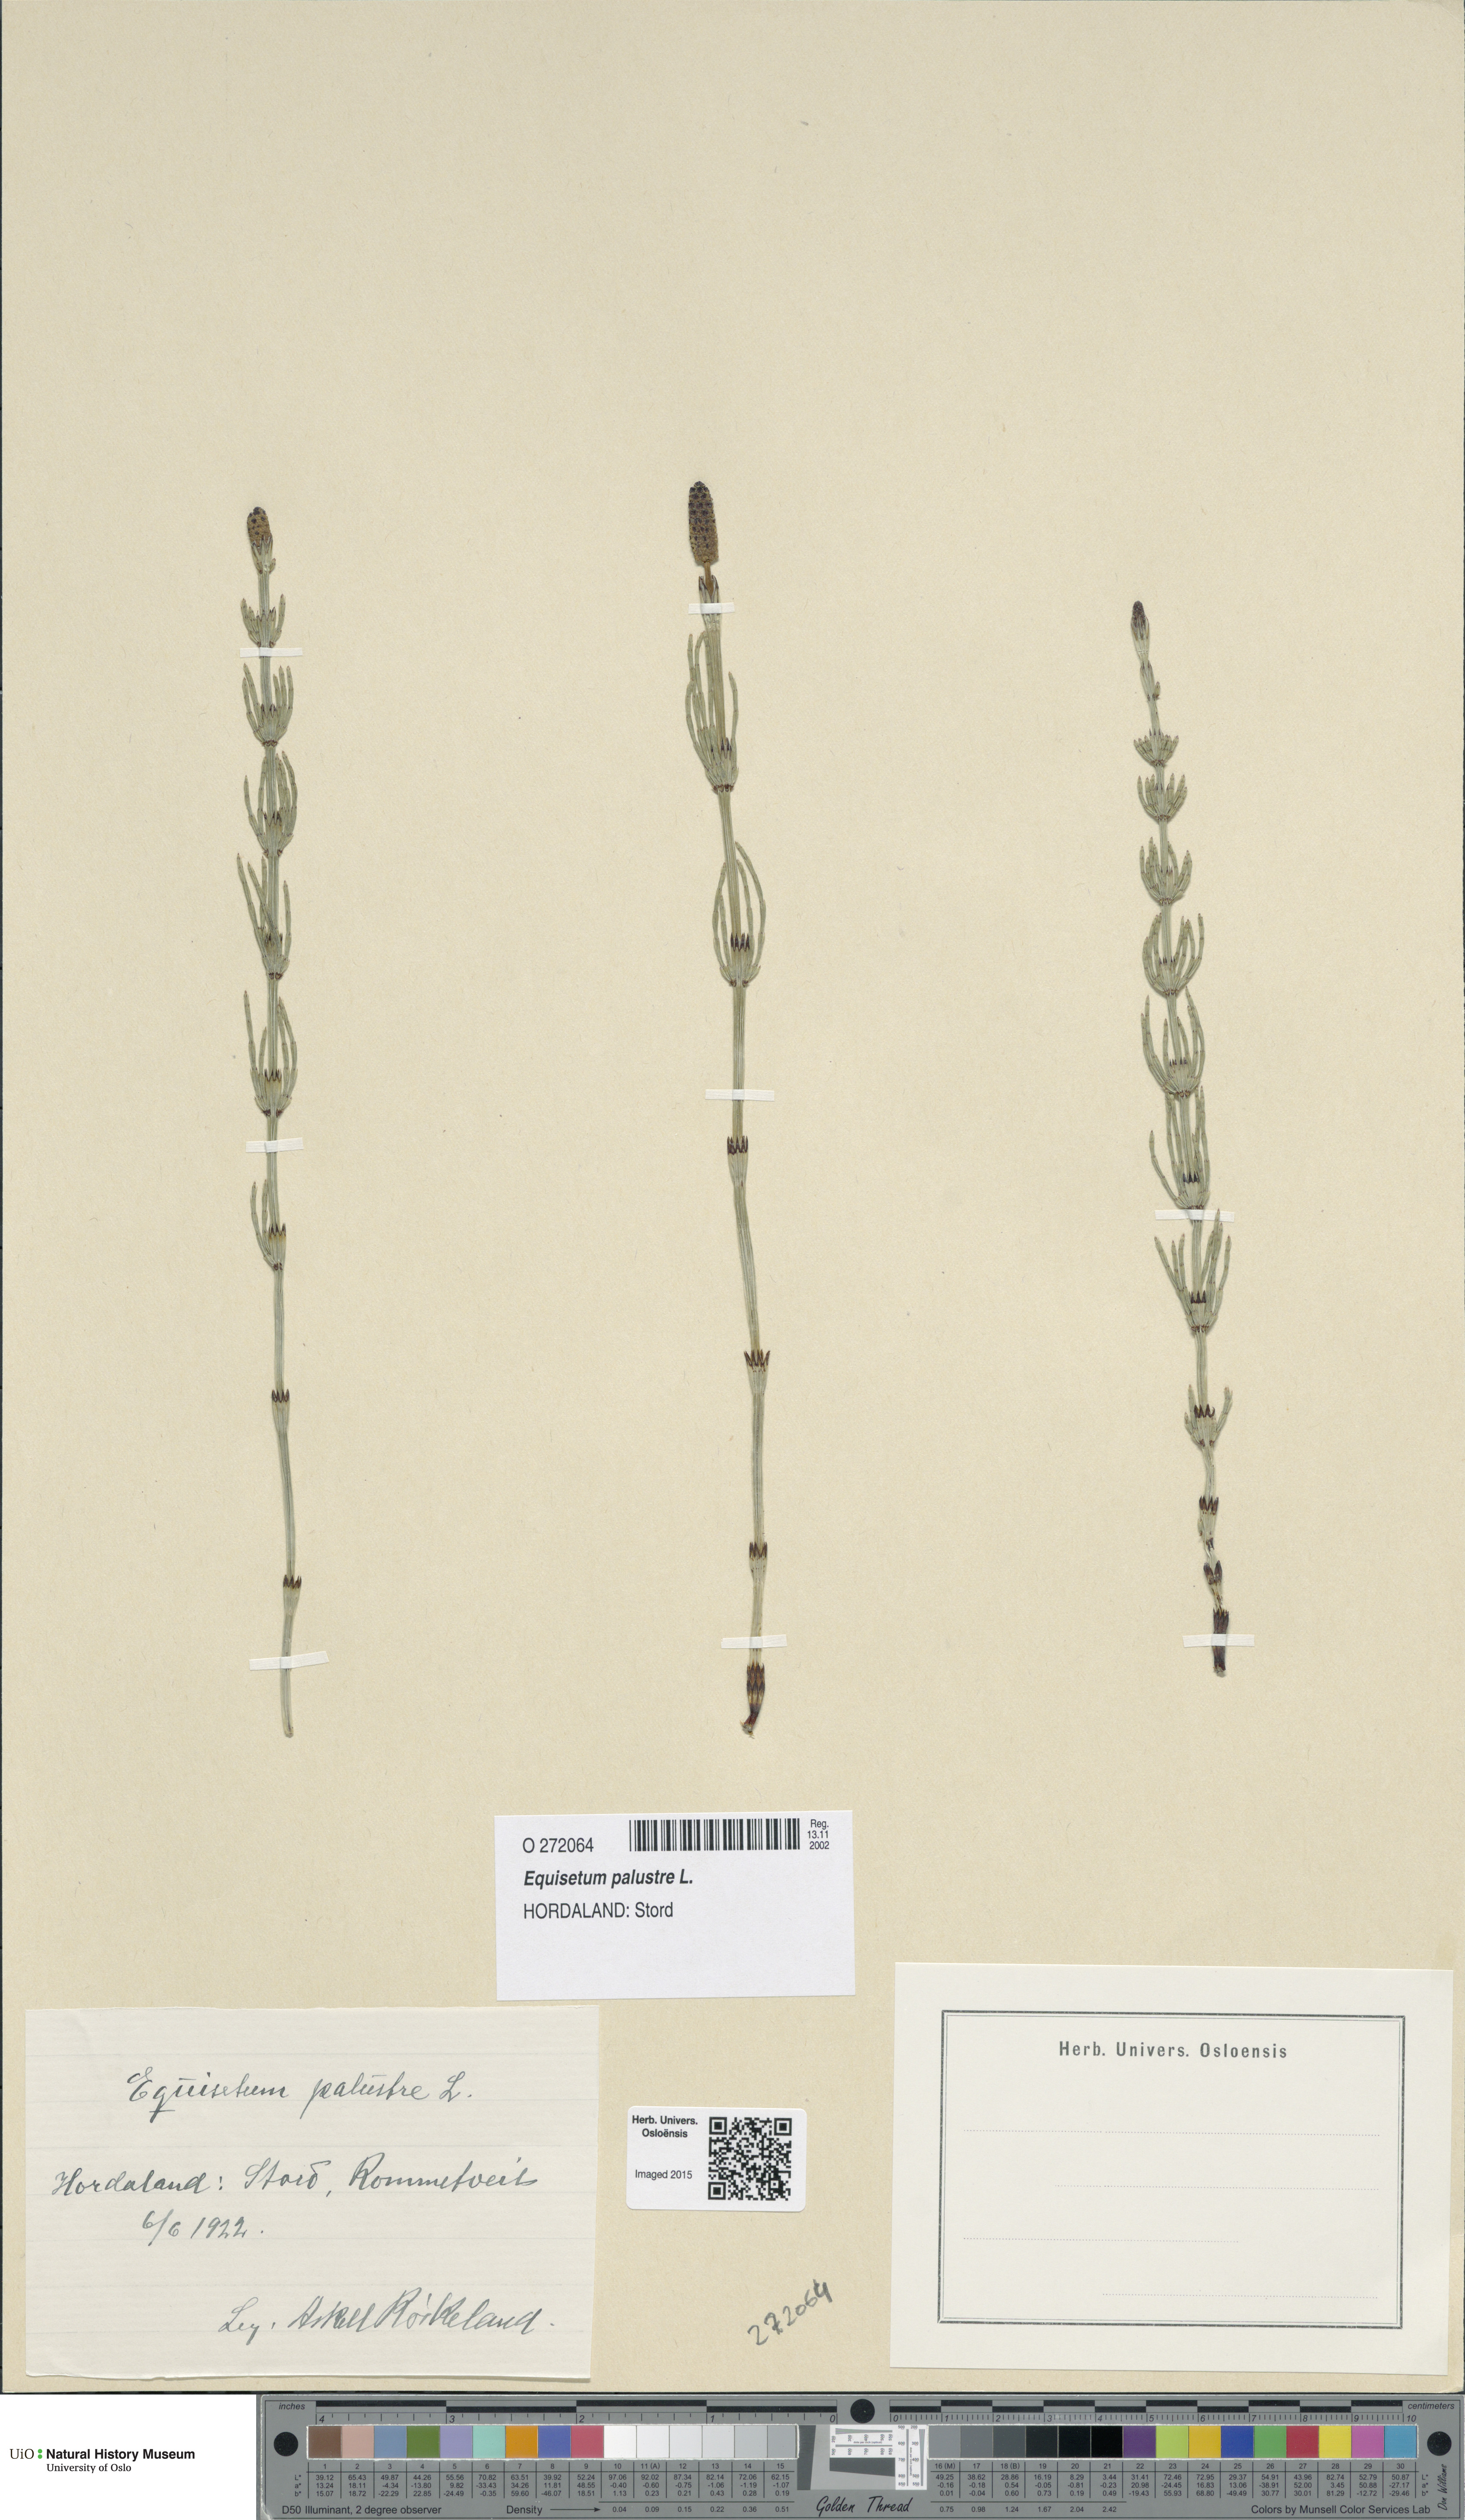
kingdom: Plantae
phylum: Tracheophyta
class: Polypodiopsida
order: Equisetales
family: Equisetaceae
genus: Equisetum
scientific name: Equisetum palustre
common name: Marsh horsetail
